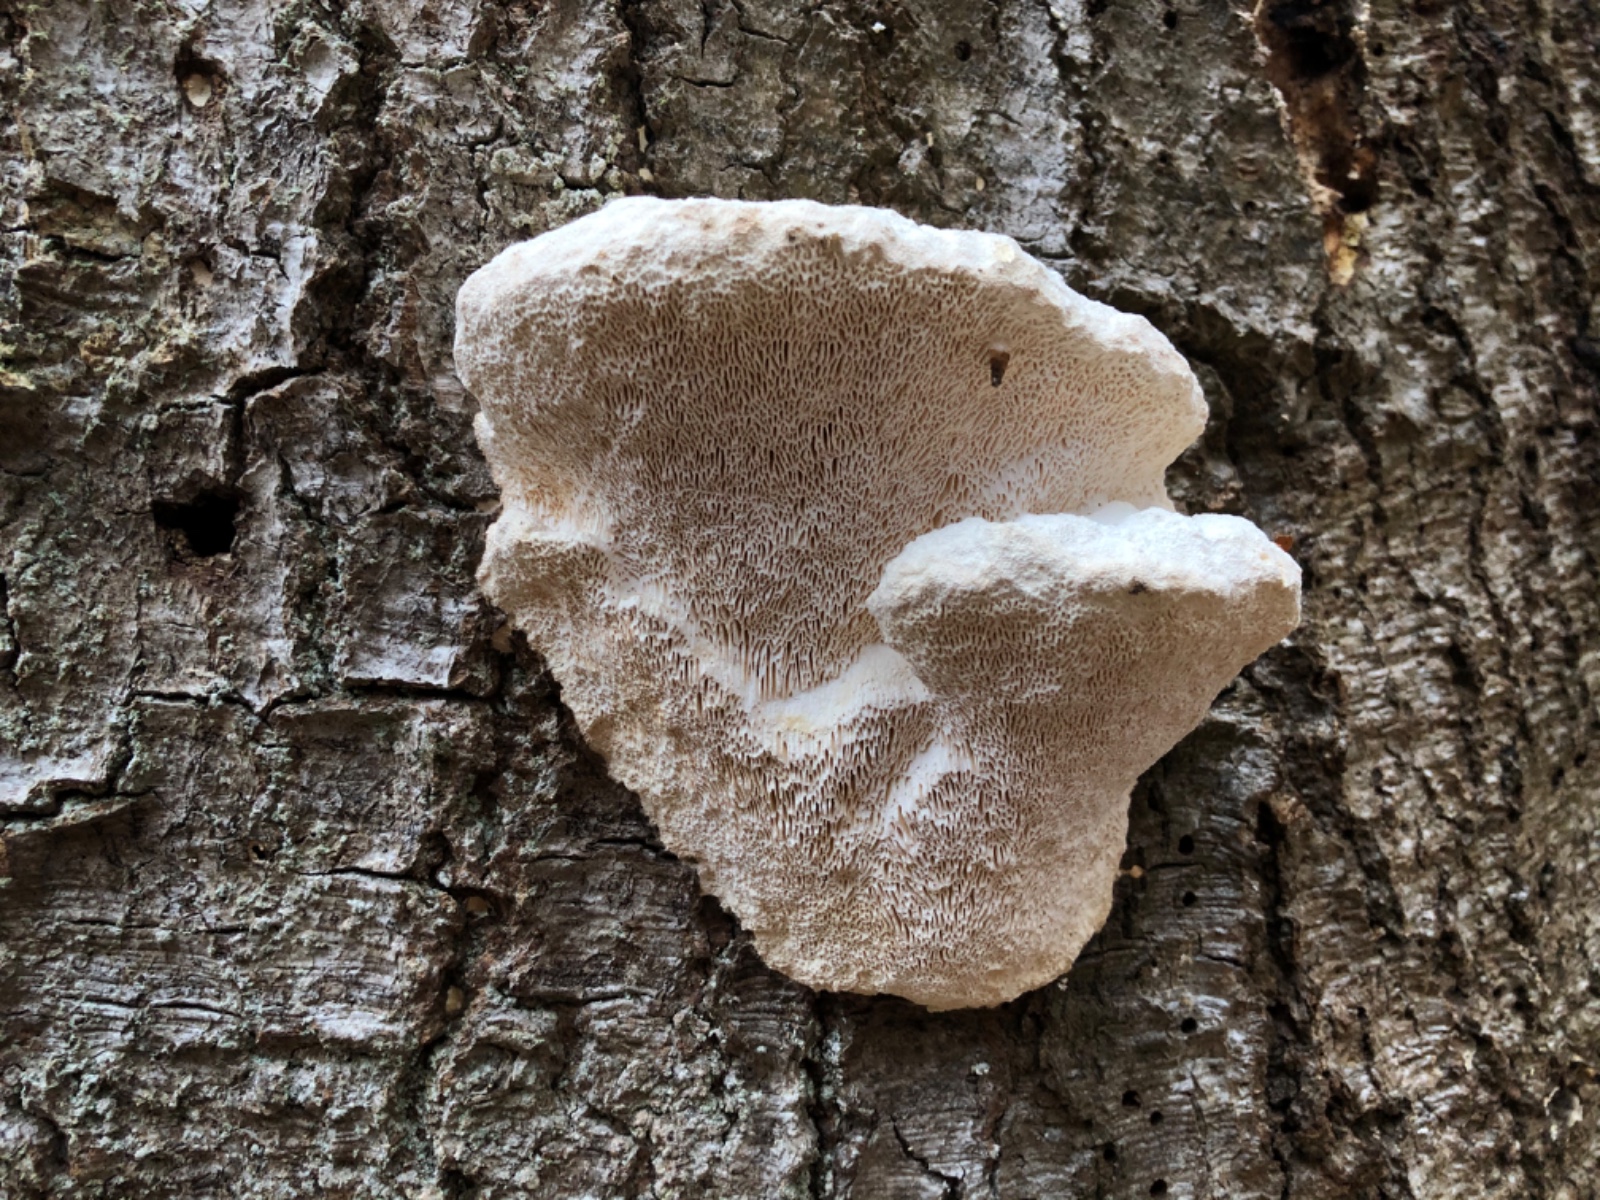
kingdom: Fungi
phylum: Basidiomycota
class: Agaricomycetes
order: Polyporales
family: Polyporaceae
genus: Trametes
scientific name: Trametes gibbosa
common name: puklet læderporesvamp
